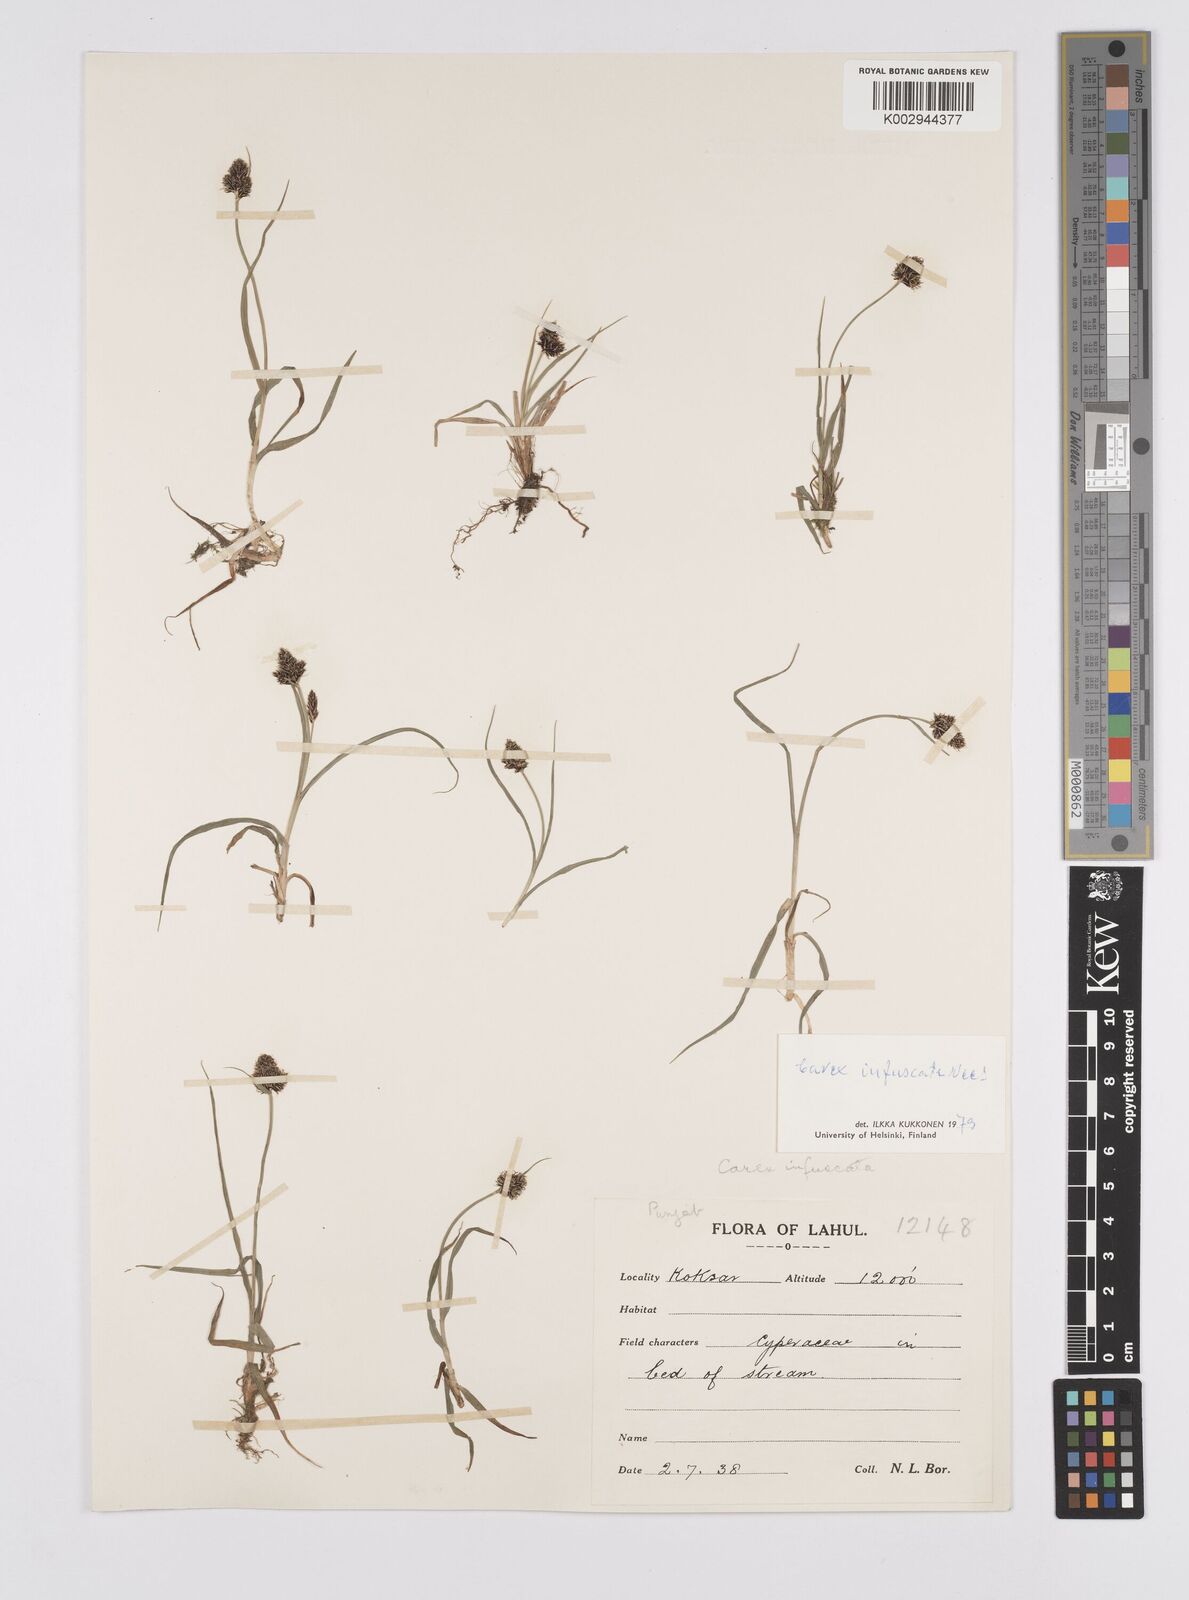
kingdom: Plantae
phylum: Tracheophyta
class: Liliopsida
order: Poales
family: Cyperaceae
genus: Carex
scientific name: Carex norvegica
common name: Close-headed alpine-sedge
